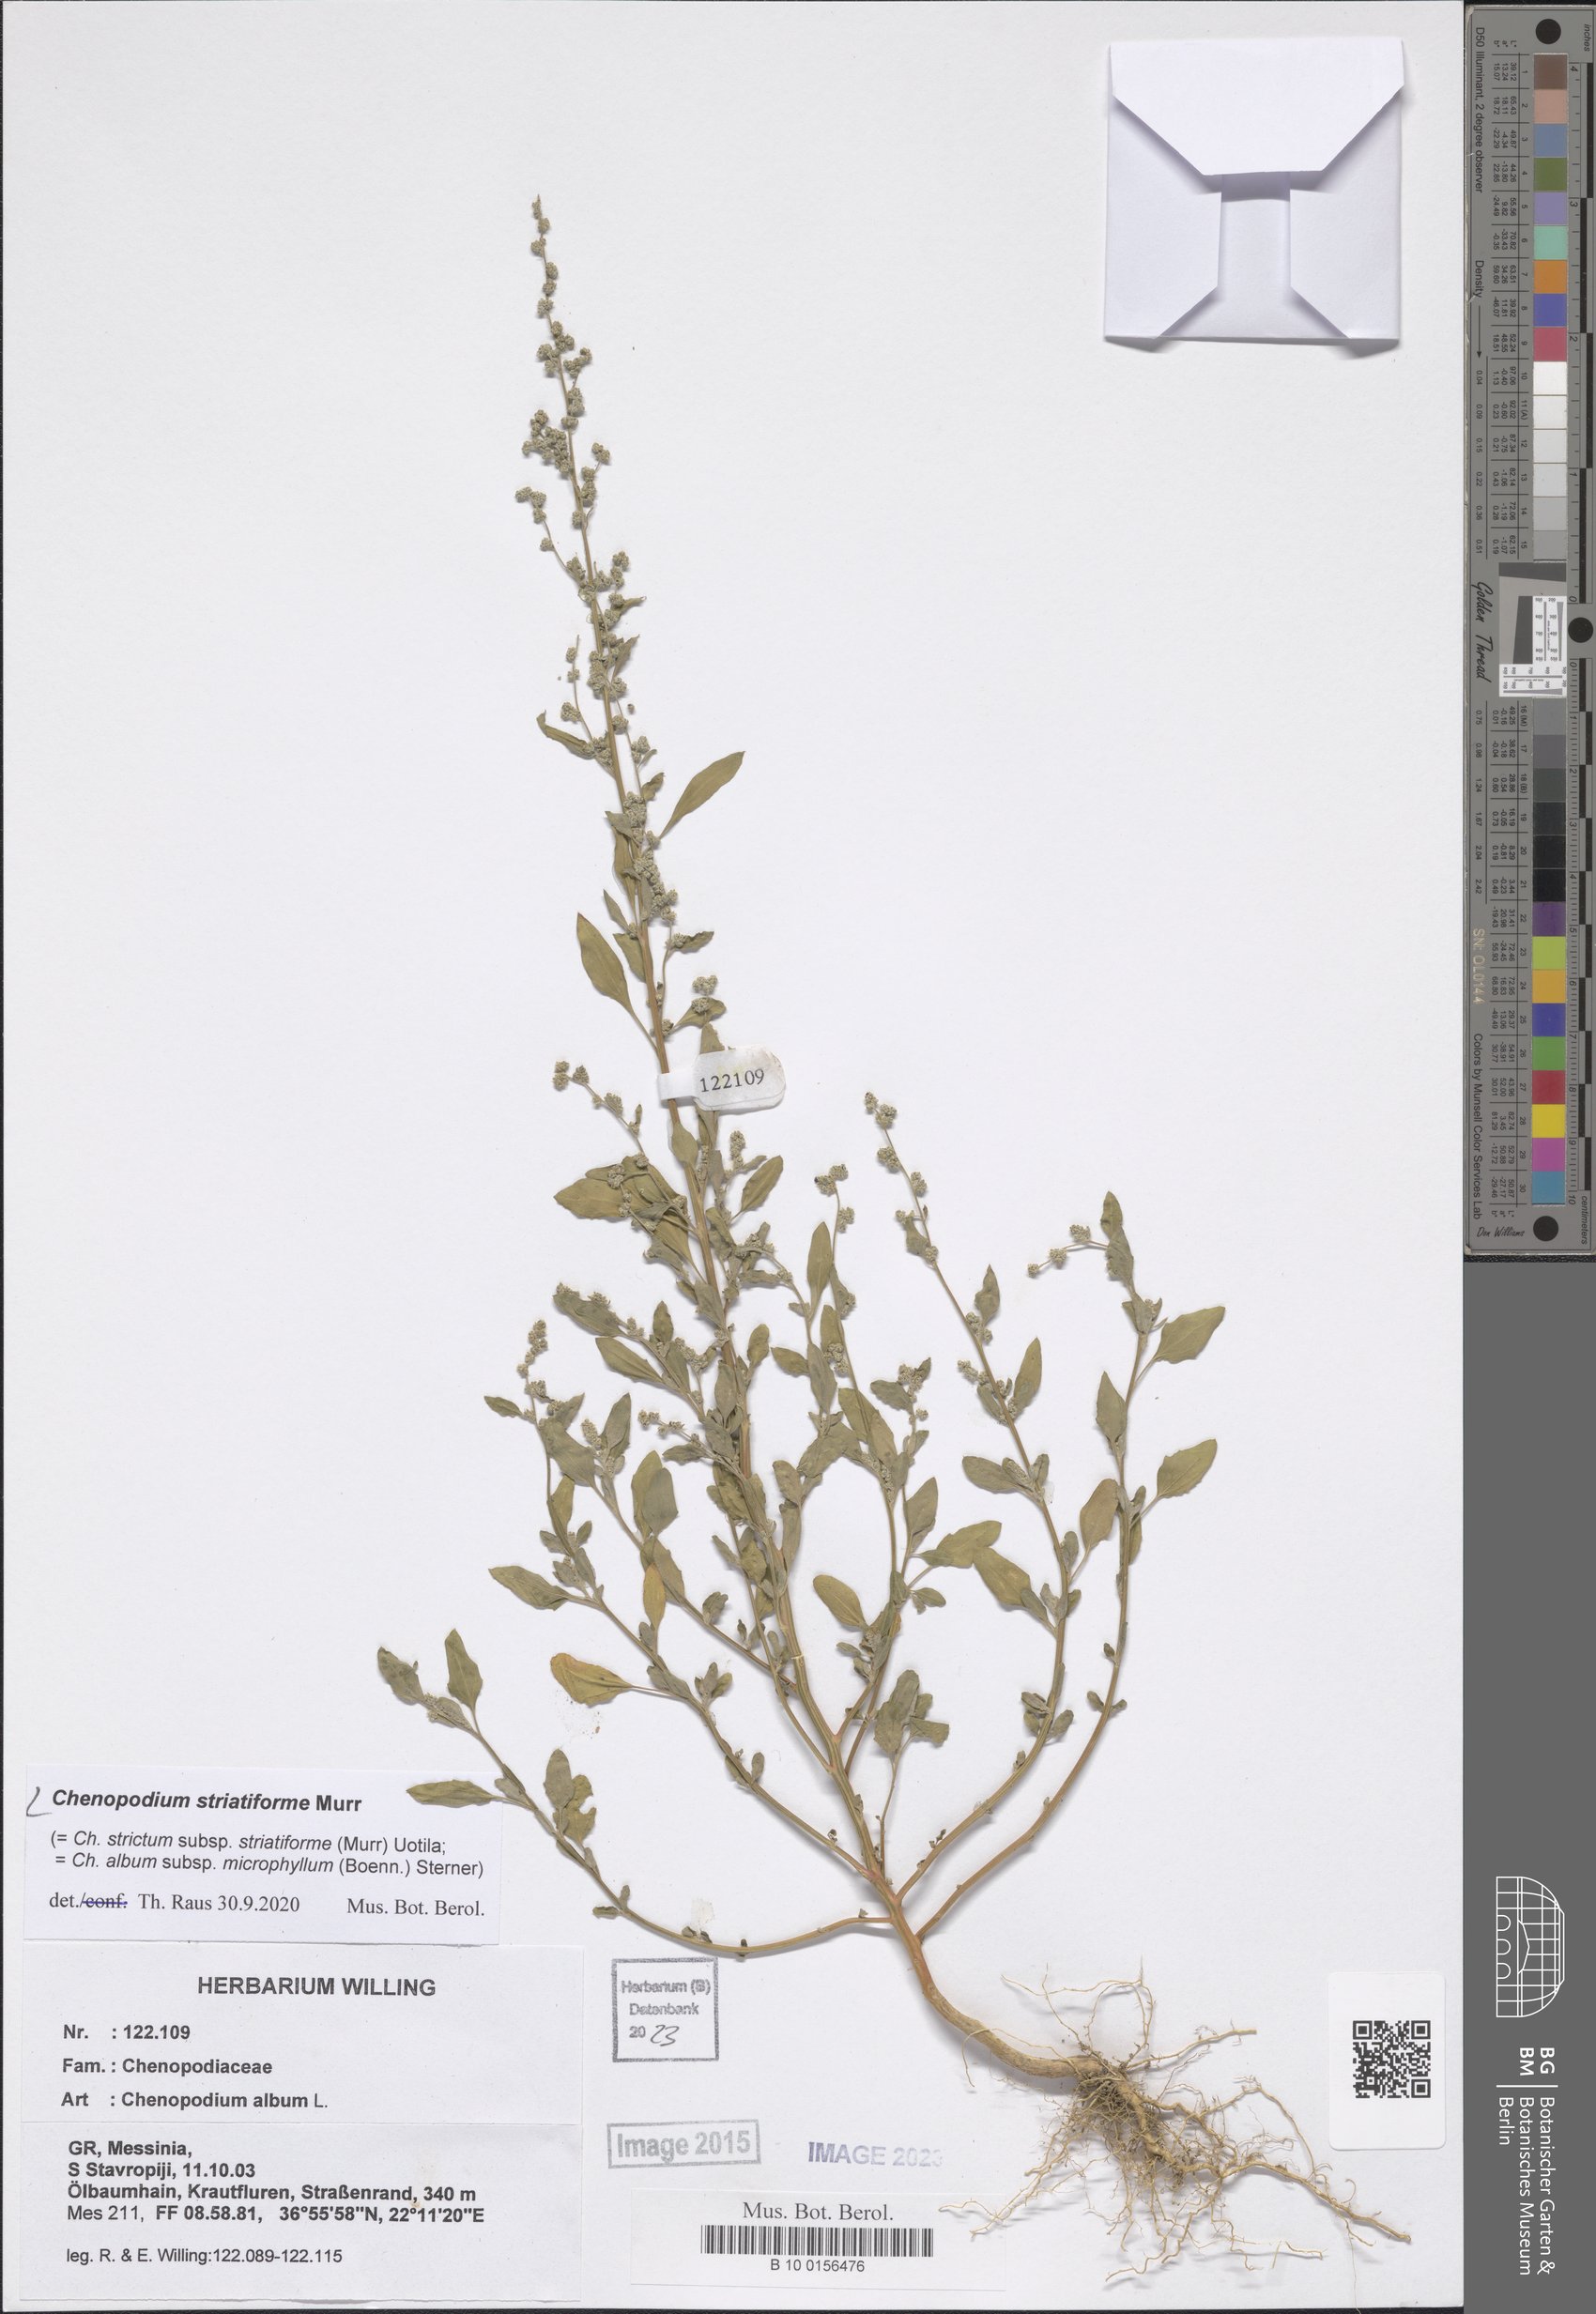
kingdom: Plantae
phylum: Tracheophyta
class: Magnoliopsida
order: Caryophyllales
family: Amaranthaceae
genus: Chenopodium
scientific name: Chenopodium striatiforme
